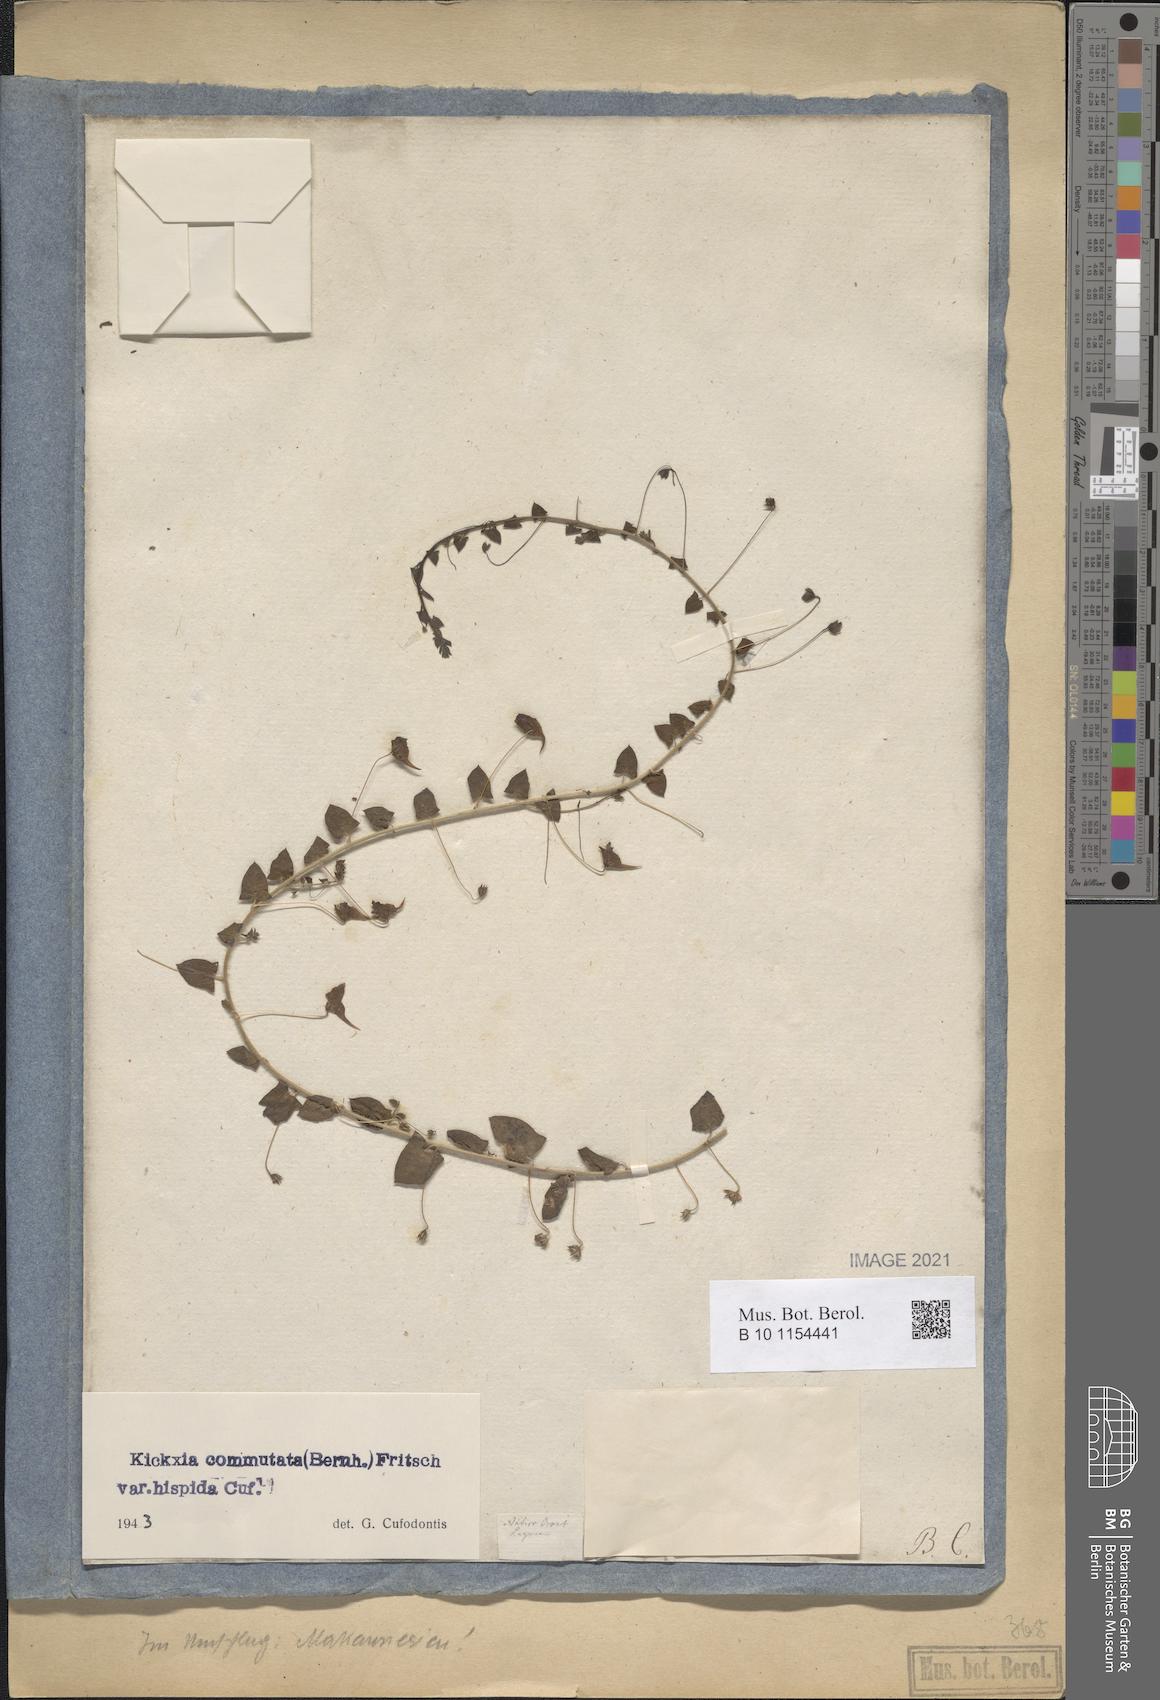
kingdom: Plantae
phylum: Tracheophyta
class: Magnoliopsida
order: Lamiales
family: Plantaginaceae
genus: Kickxia
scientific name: Kickxia commutata
